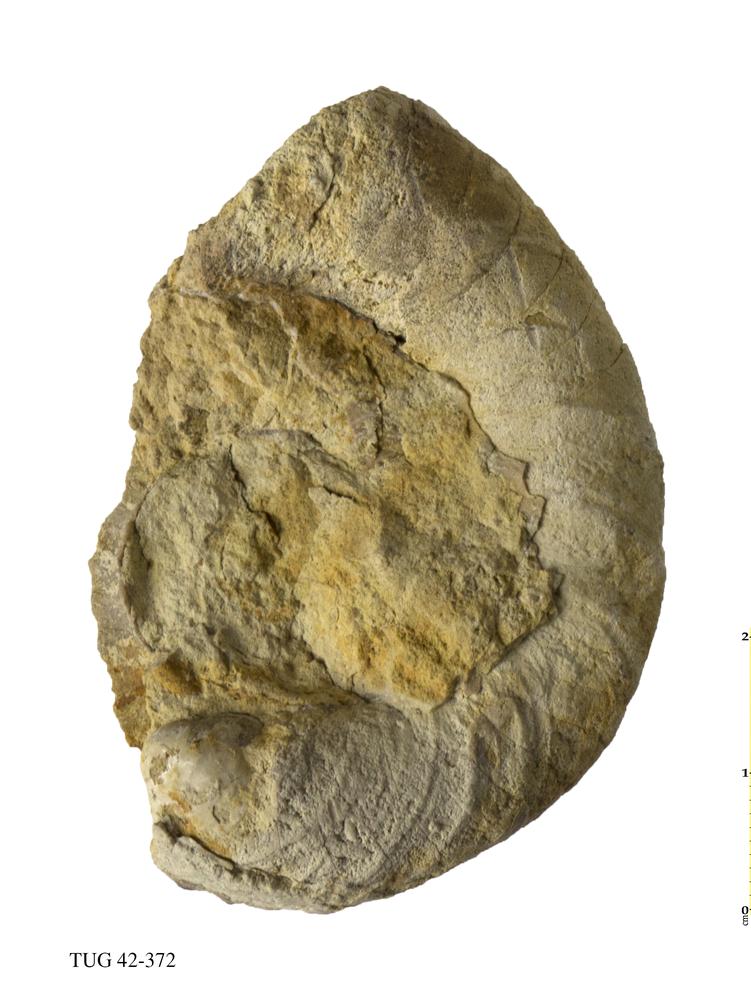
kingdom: Animalia
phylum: Mollusca
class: Cephalopoda
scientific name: Cephalopoda
